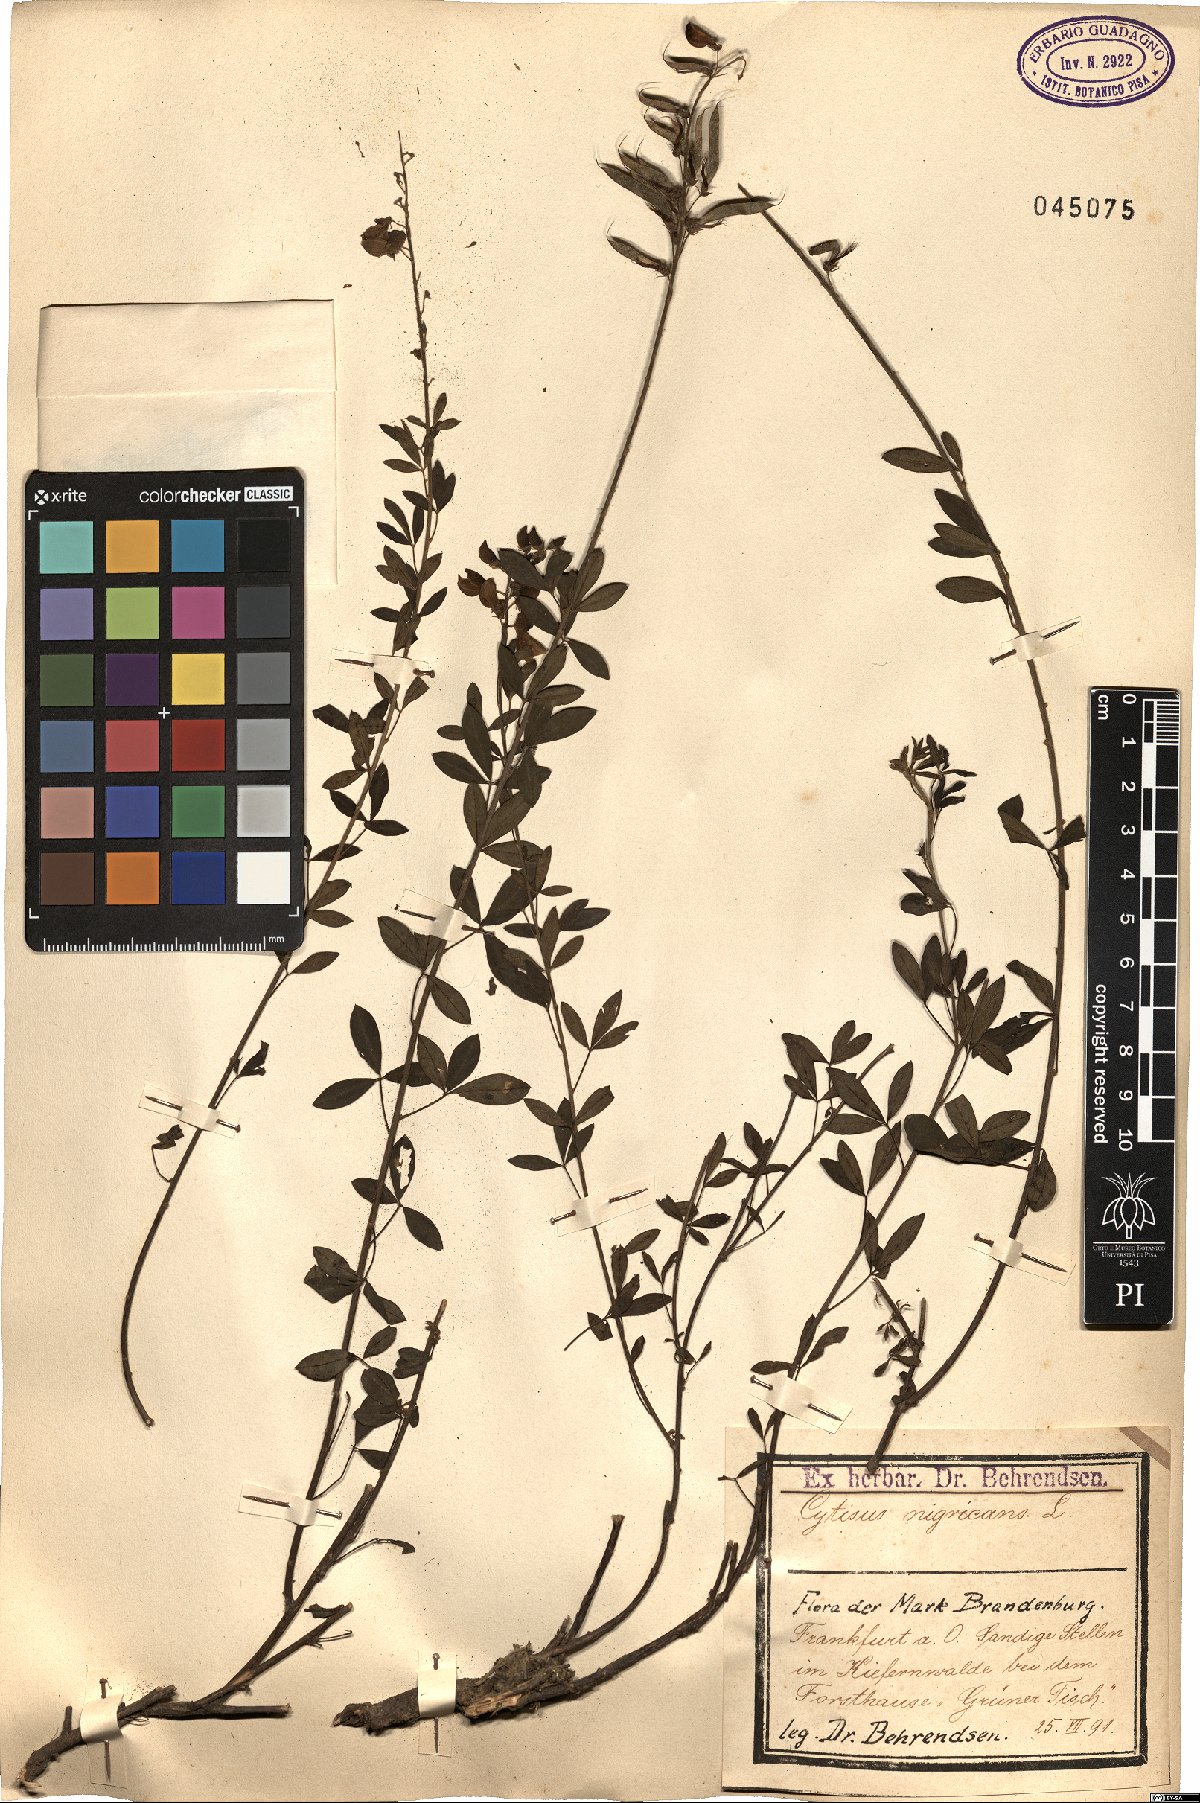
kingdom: Plantae
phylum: Tracheophyta
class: Magnoliopsida
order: Fabales
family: Fabaceae
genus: Cytisus
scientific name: Cytisus nigricans
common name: Black broom
